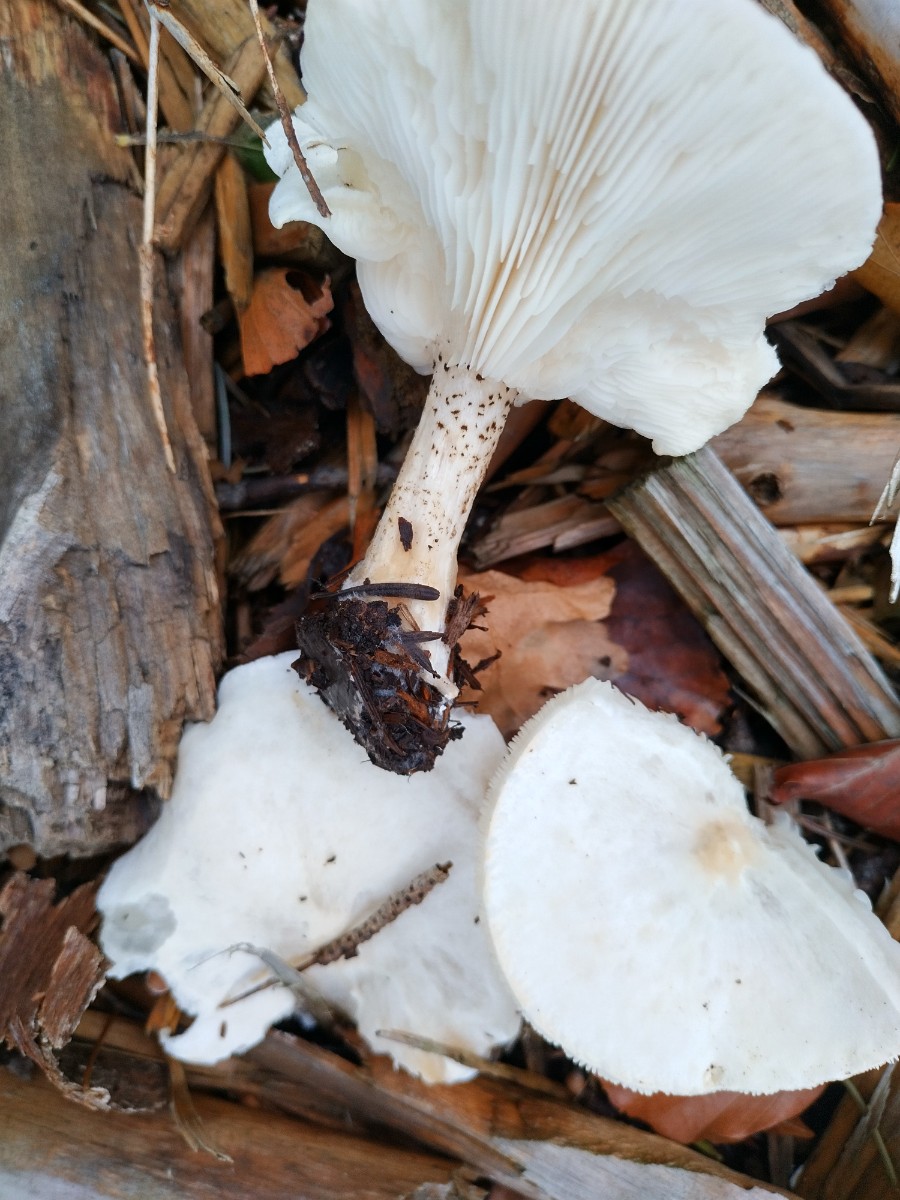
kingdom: Fungi
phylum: Basidiomycota
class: Agaricomycetes
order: Agaricales
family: Tricholomataceae
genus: Melanoleuca
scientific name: Melanoleuca verrucipes
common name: rufodet munkehat
